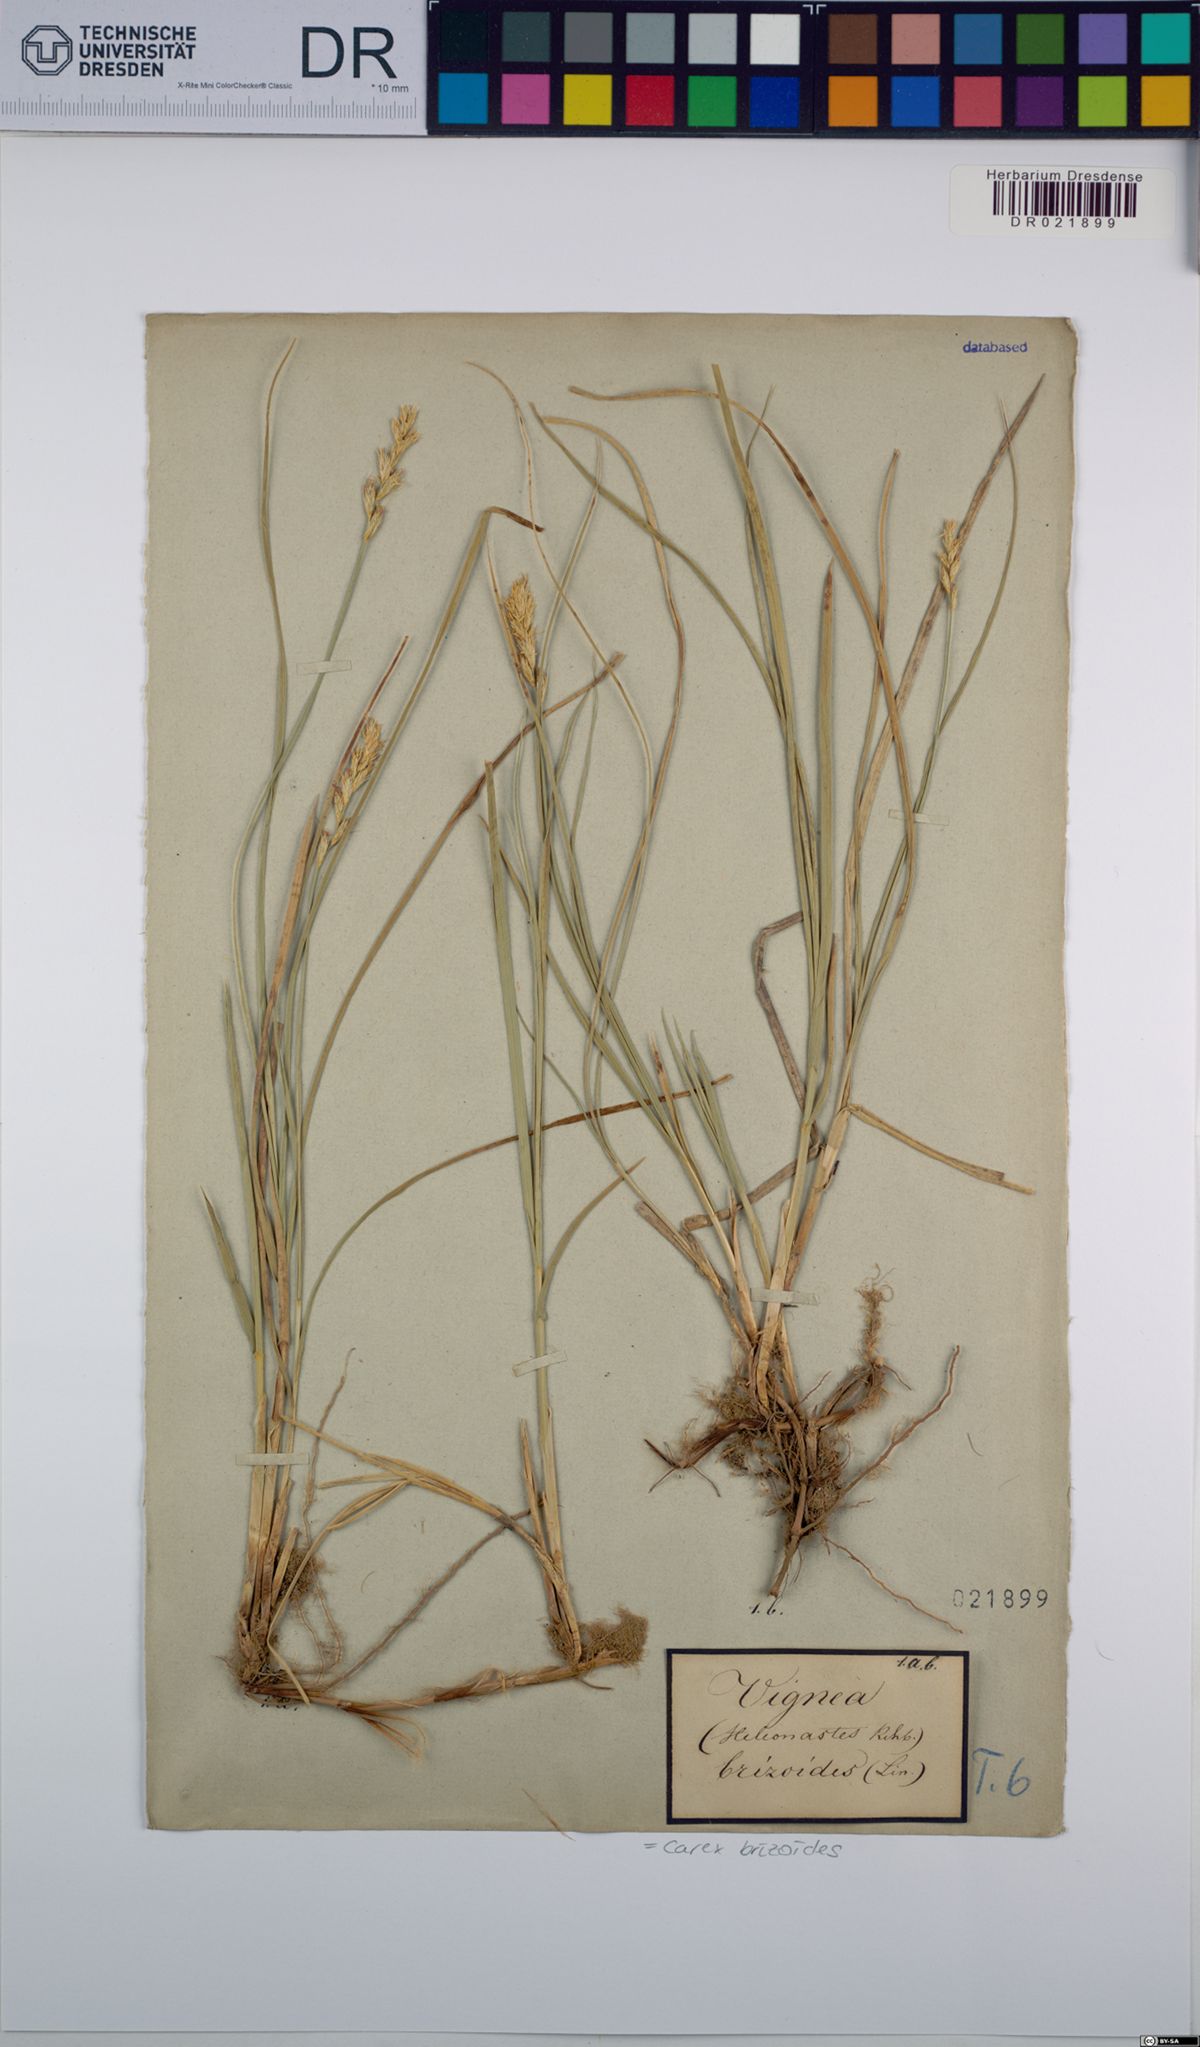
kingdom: Plantae
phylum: Tracheophyta
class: Liliopsida
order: Poales
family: Cyperaceae
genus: Carex
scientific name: Carex brizoides
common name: Quaking-grass sedge
